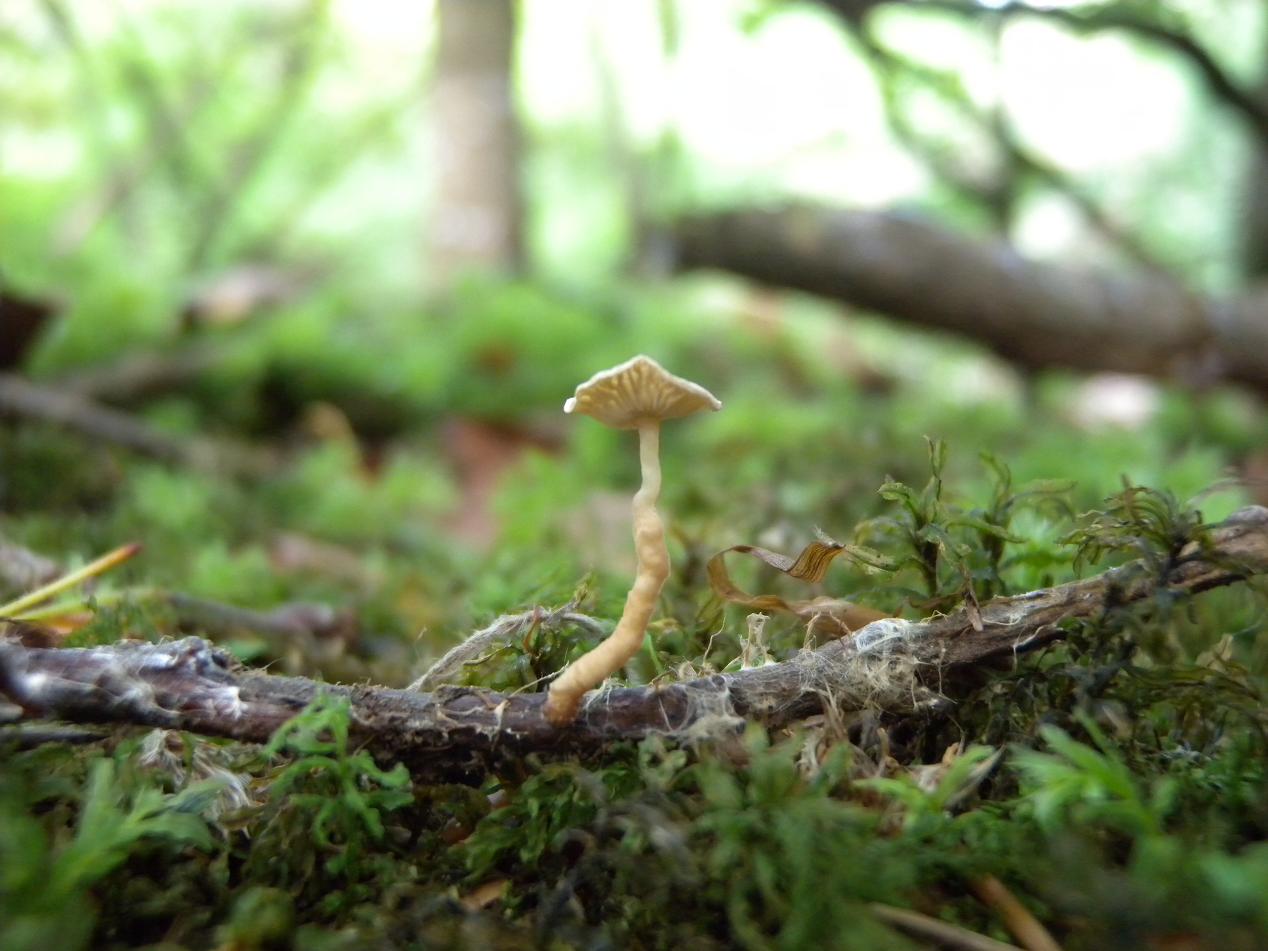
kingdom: Fungi
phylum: Basidiomycota
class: Agaricomycetes
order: Agaricales
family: Omphalotaceae
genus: Collybiopsis
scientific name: Collybiopsis vaillantii
